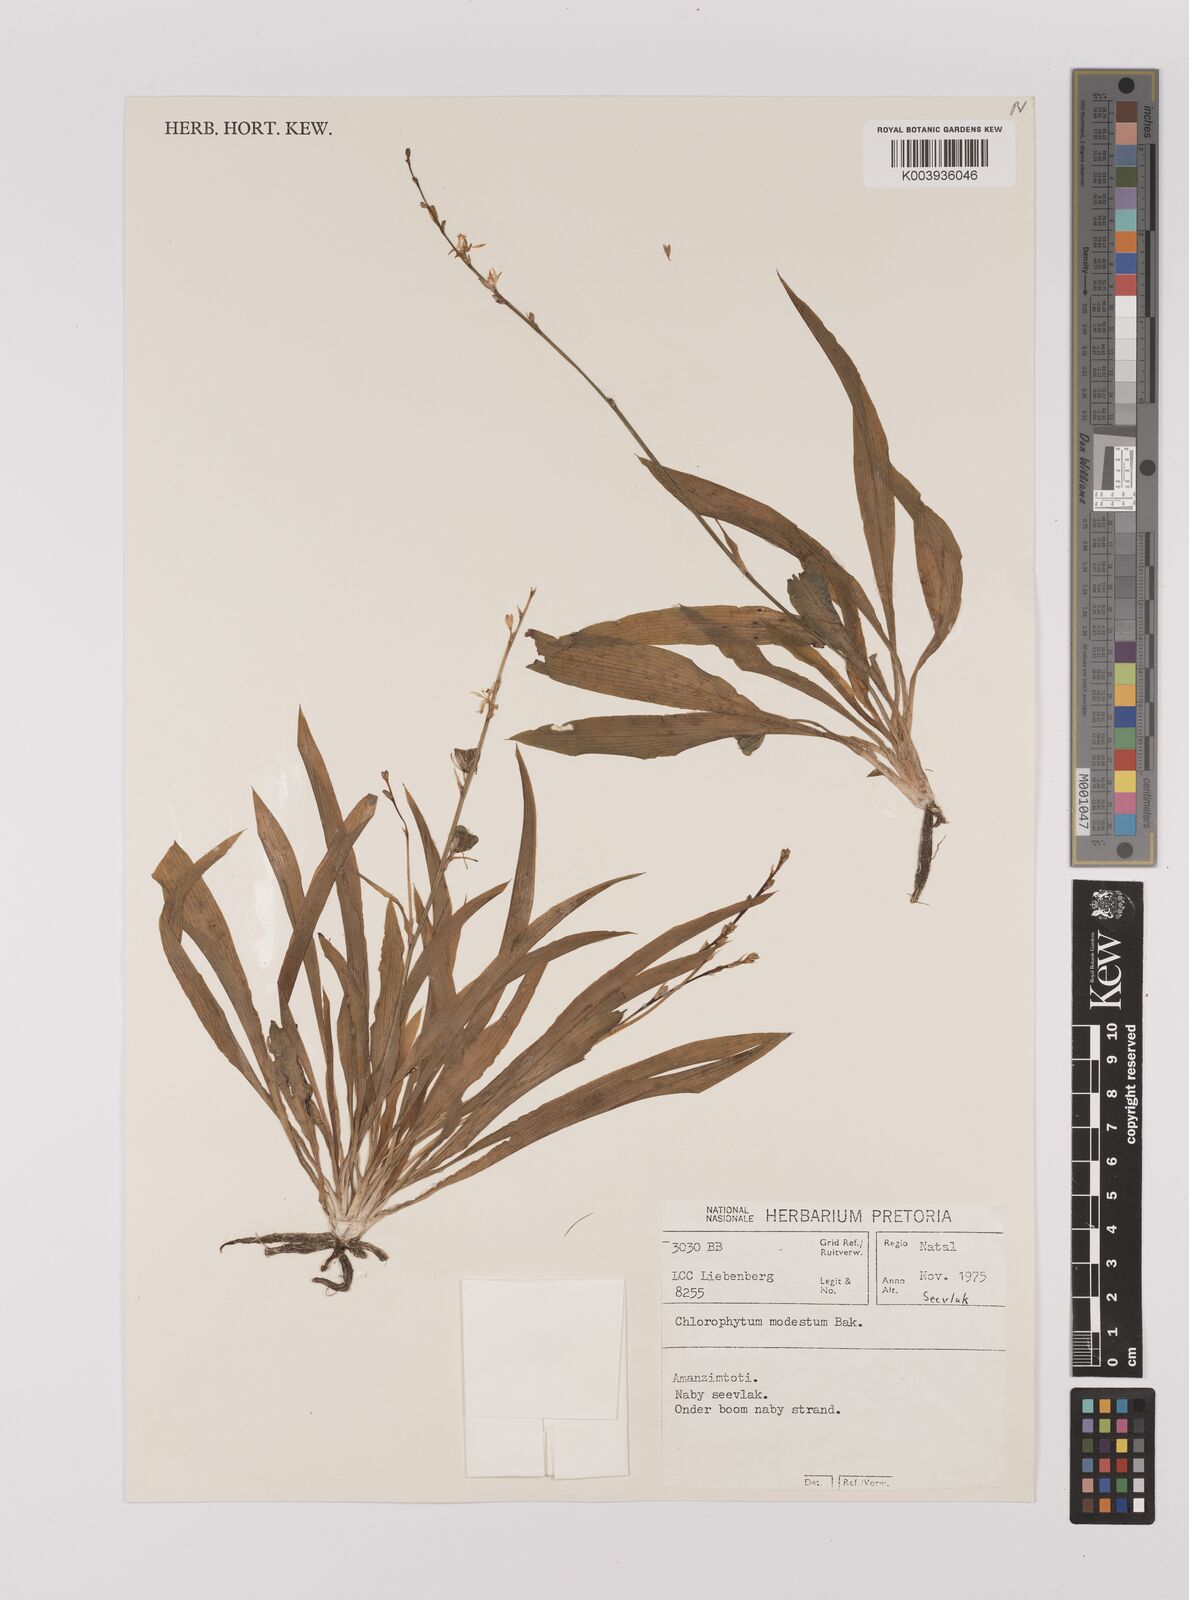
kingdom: Plantae
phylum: Tracheophyta
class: Liliopsida
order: Asparagales
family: Asparagaceae
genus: Chlorophytum
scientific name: Chlorophytum modestum
